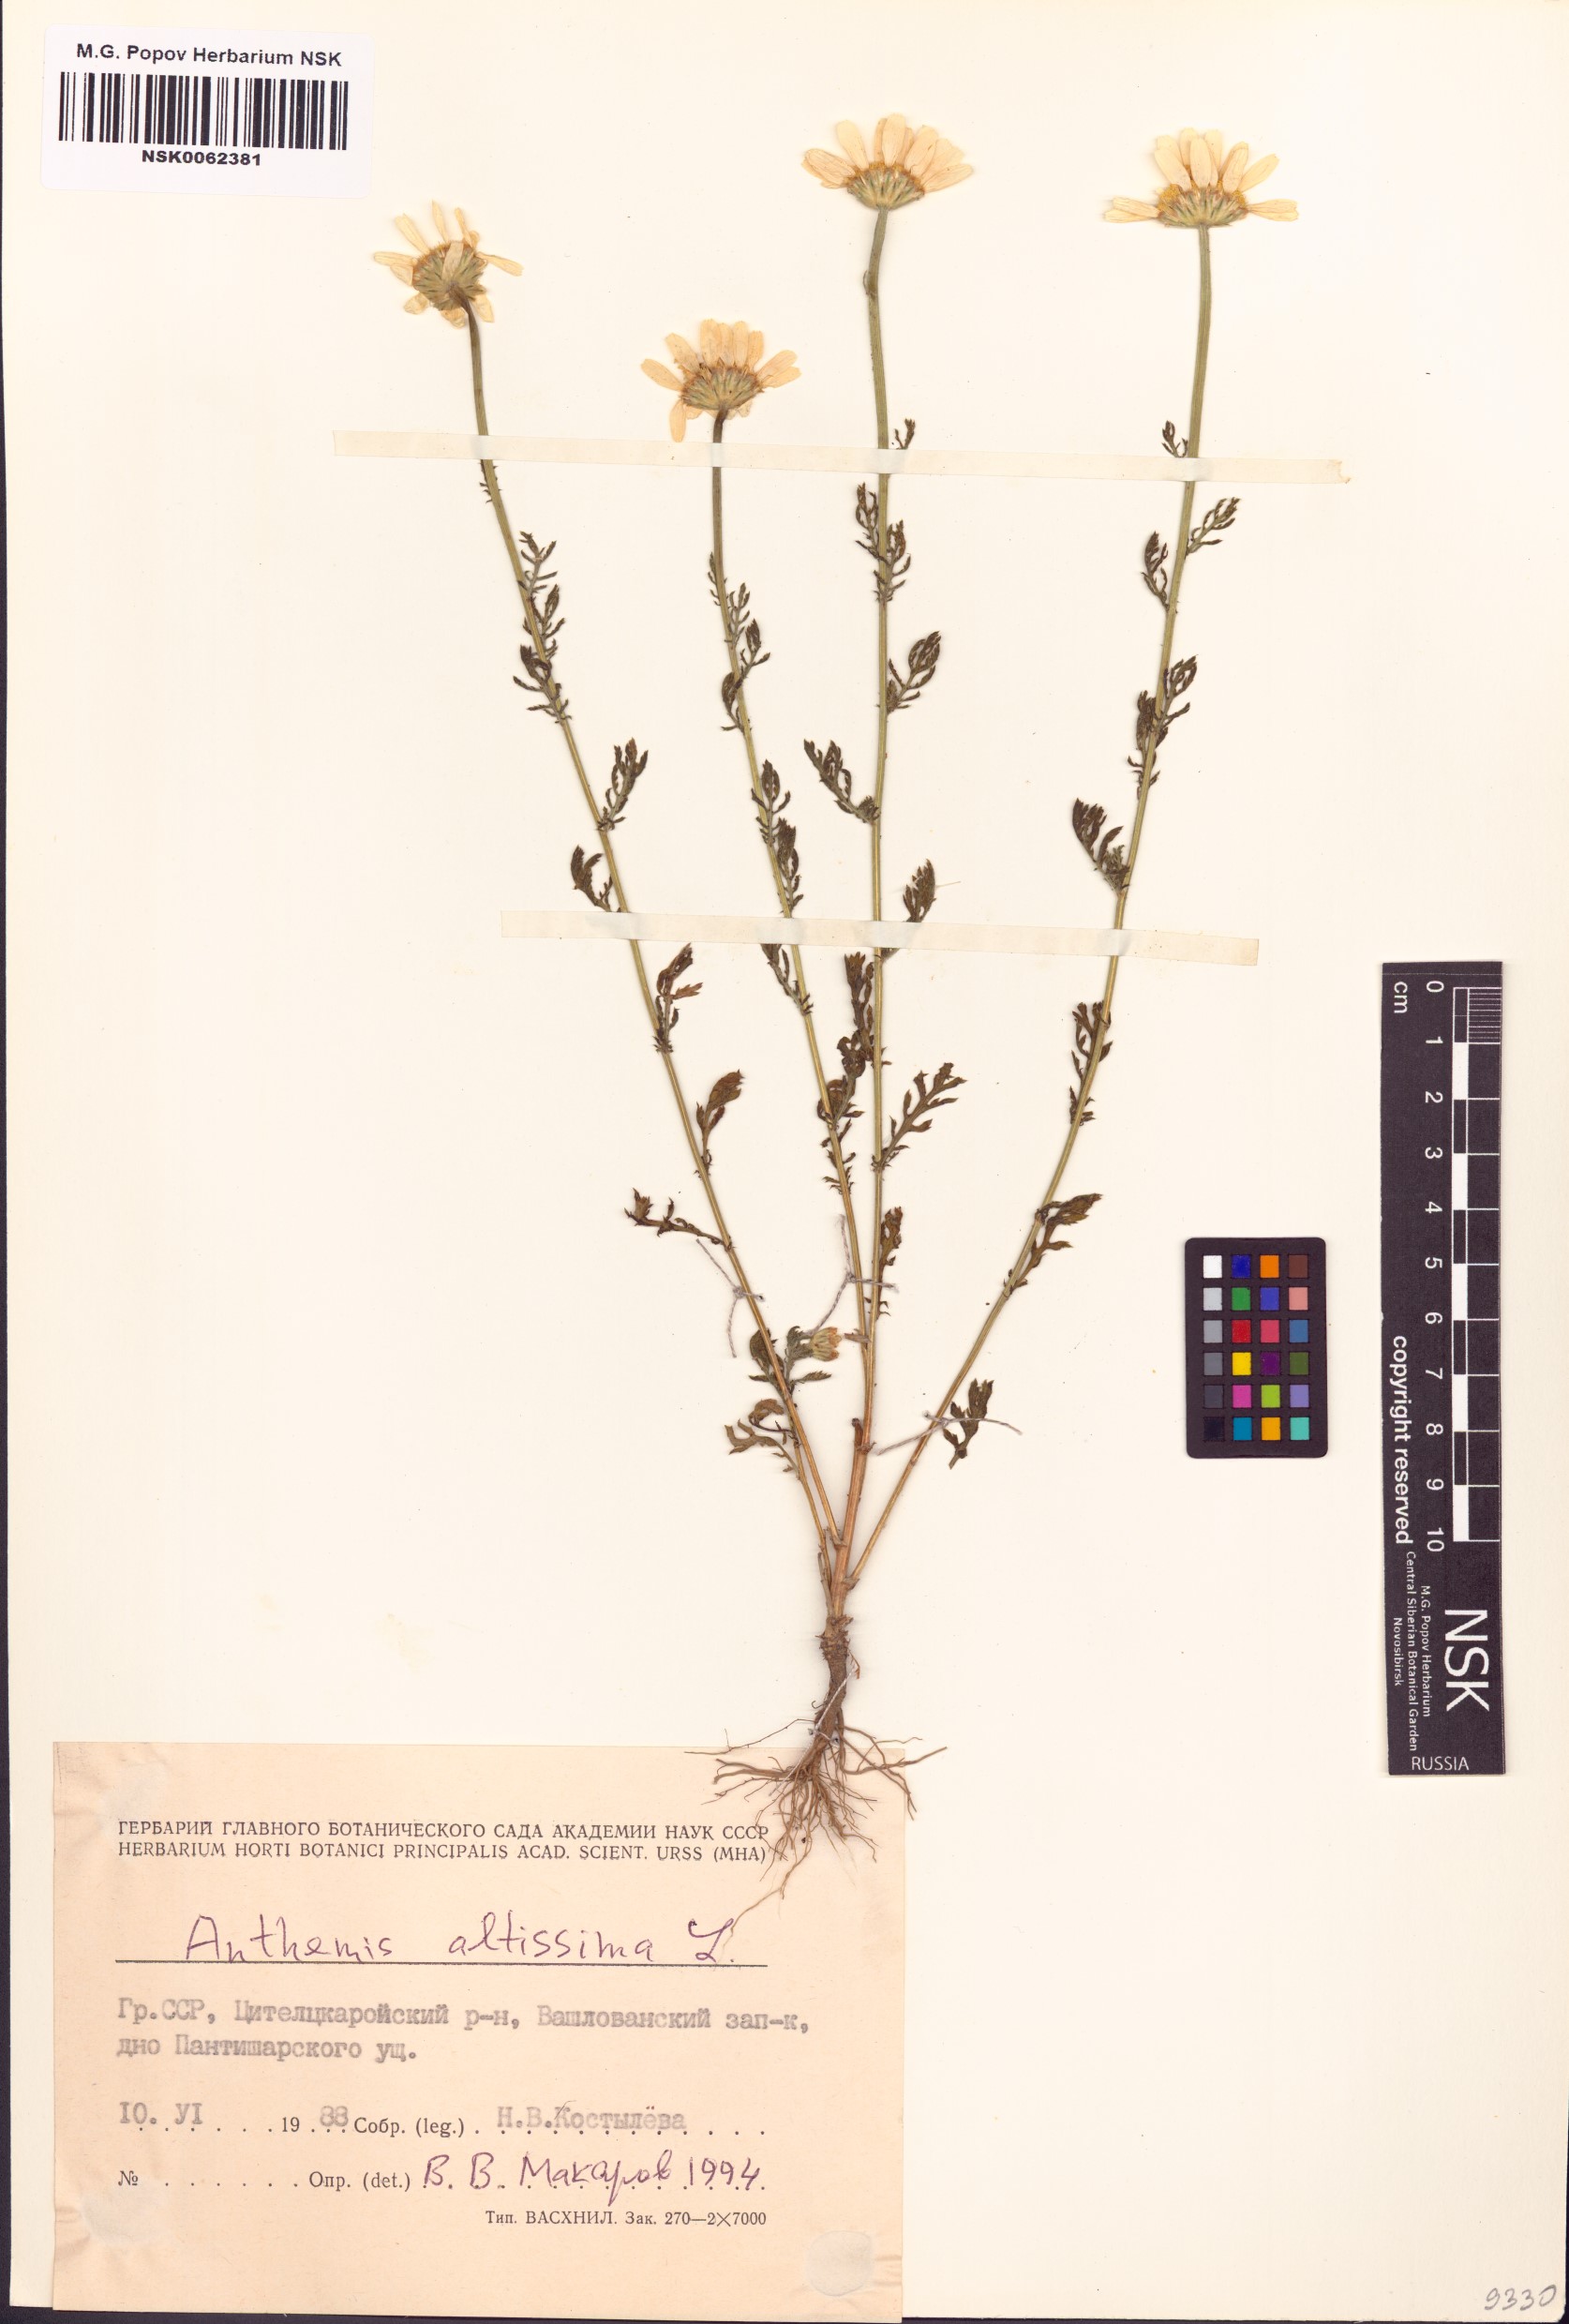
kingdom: Plantae
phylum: Tracheophyta
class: Magnoliopsida
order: Asterales
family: Asteraceae
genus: Cota
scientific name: Cota altissima
